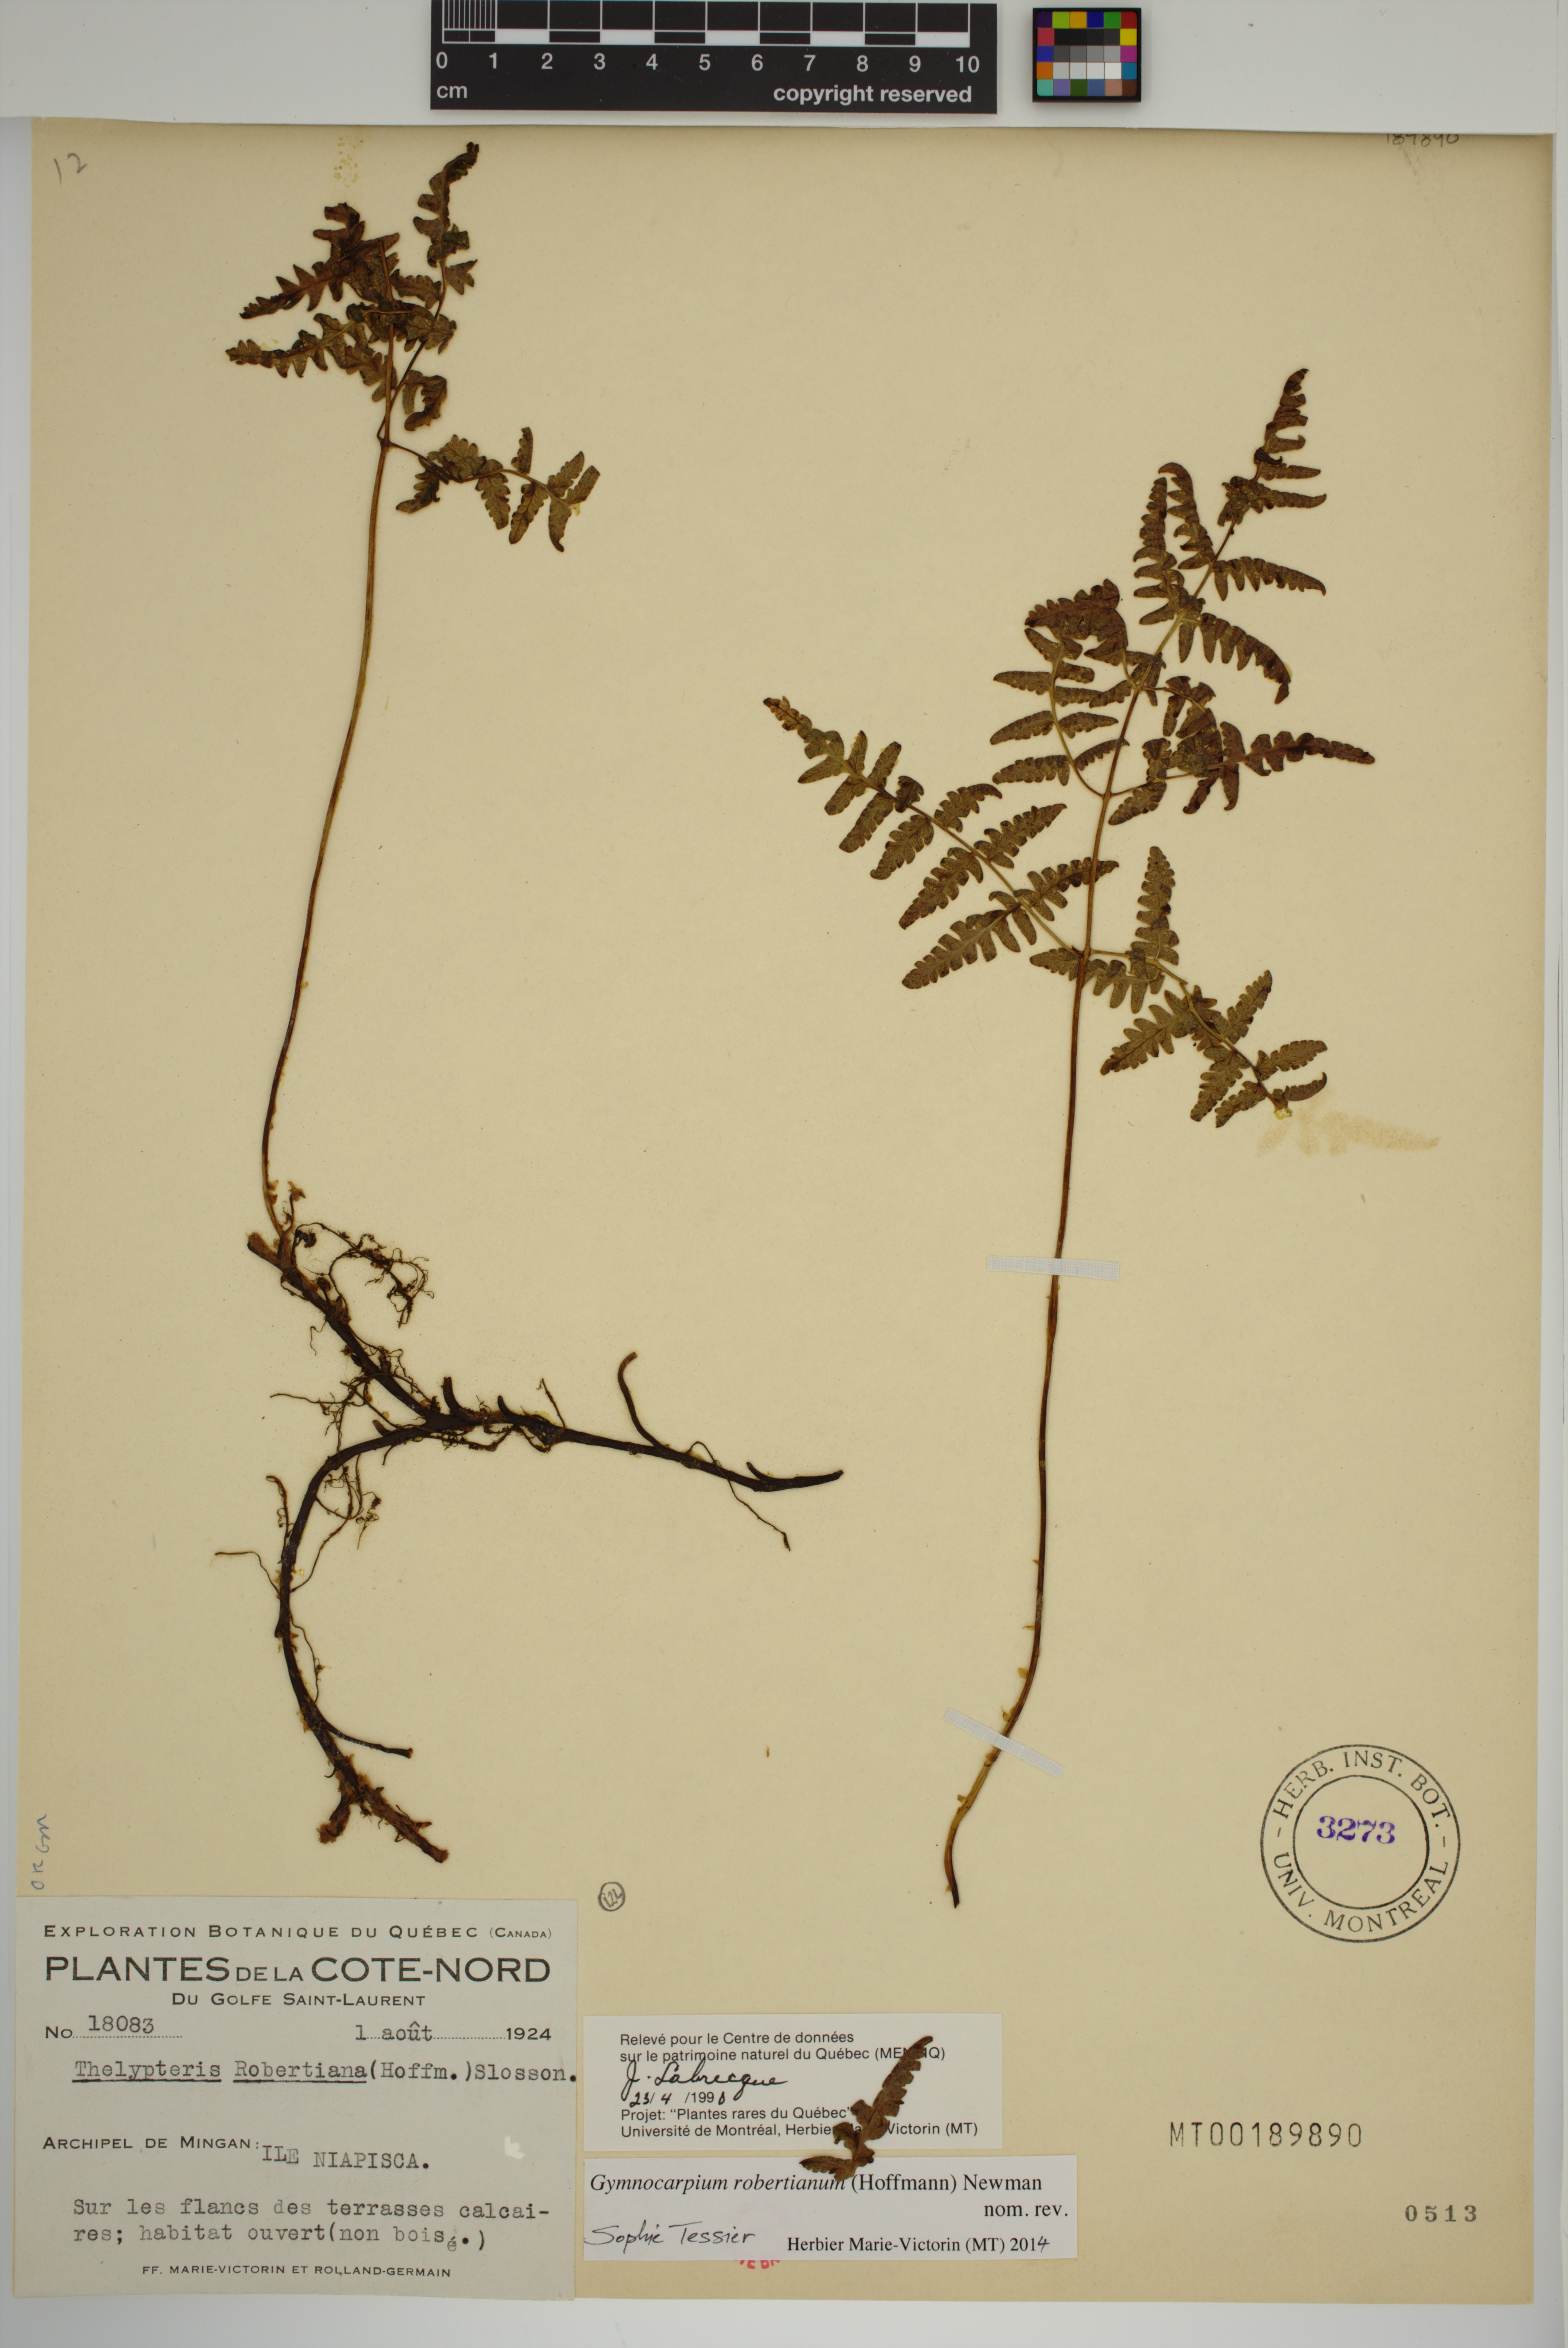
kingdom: Plantae
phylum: Tracheophyta
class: Polypodiopsida
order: Polypodiales
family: Cystopteridaceae
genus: Gymnocarpium
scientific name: Gymnocarpium robertianum
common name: Limestone fern
